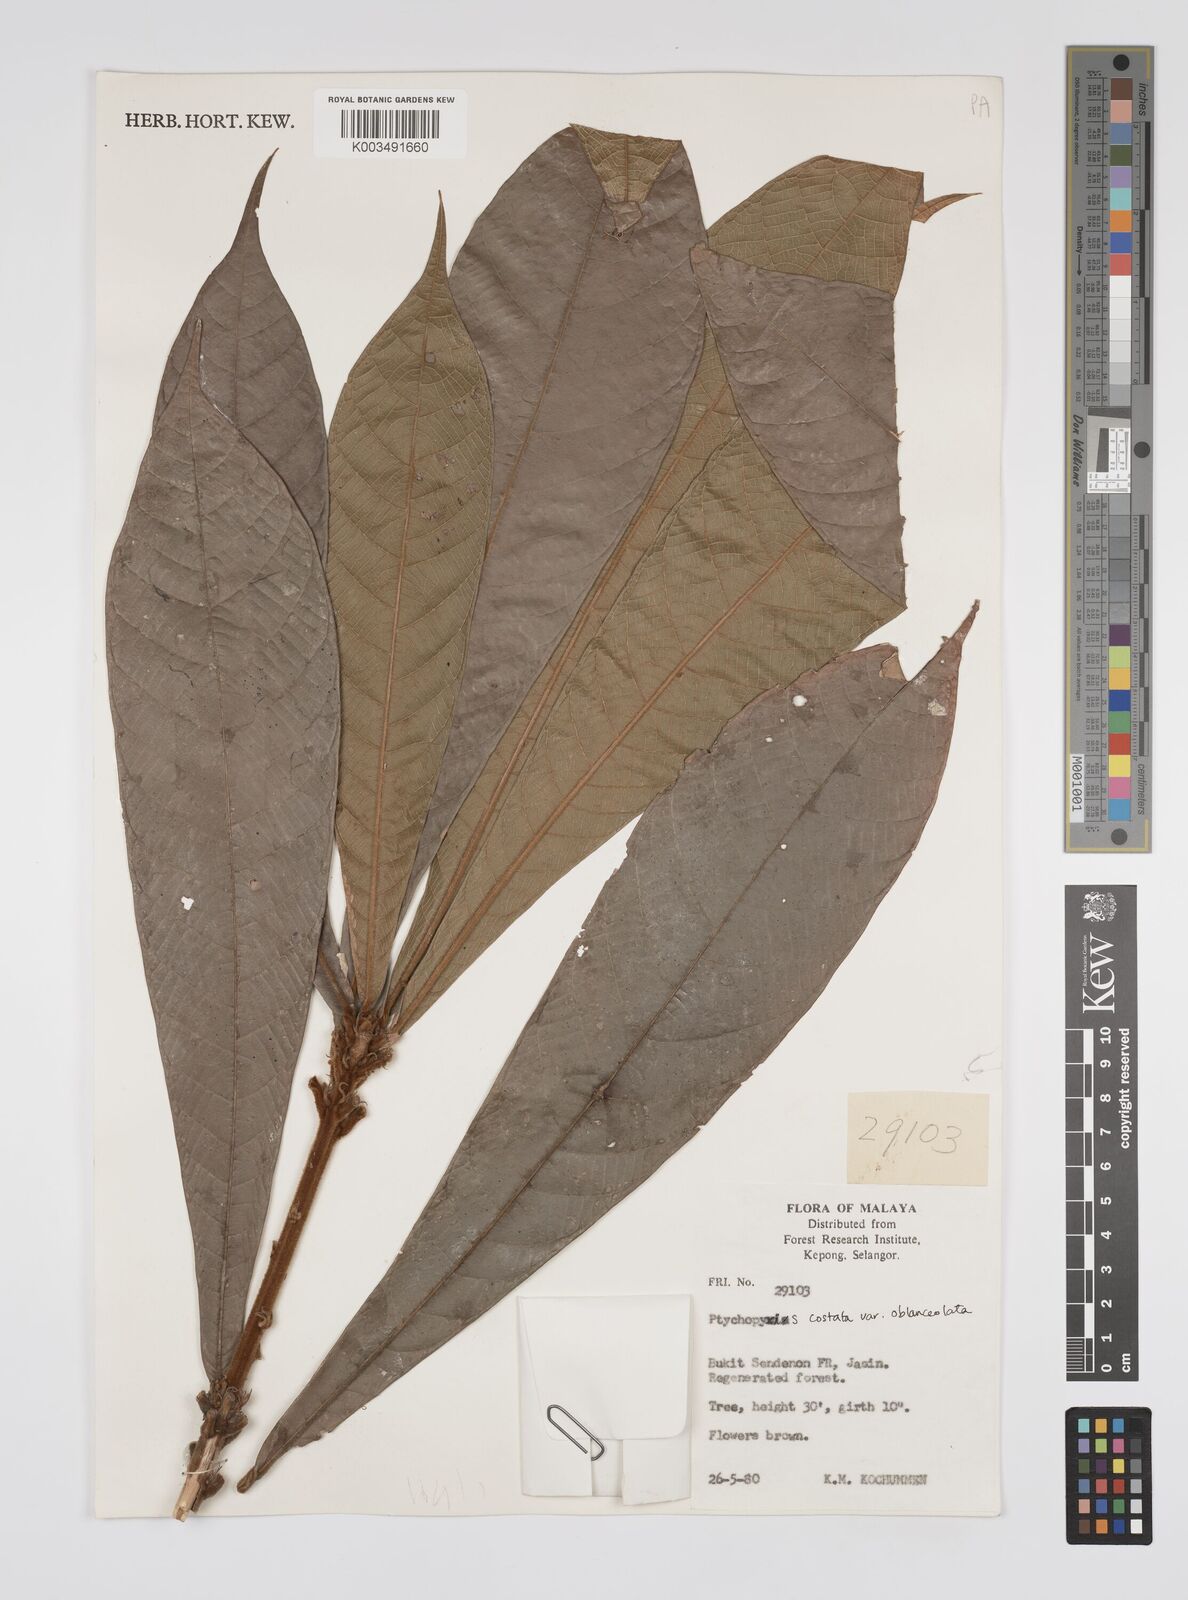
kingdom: Plantae
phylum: Tracheophyta
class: Magnoliopsida
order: Malpighiales
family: Euphorbiaceae
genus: Ptychopyxis
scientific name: Ptychopyxis costata
